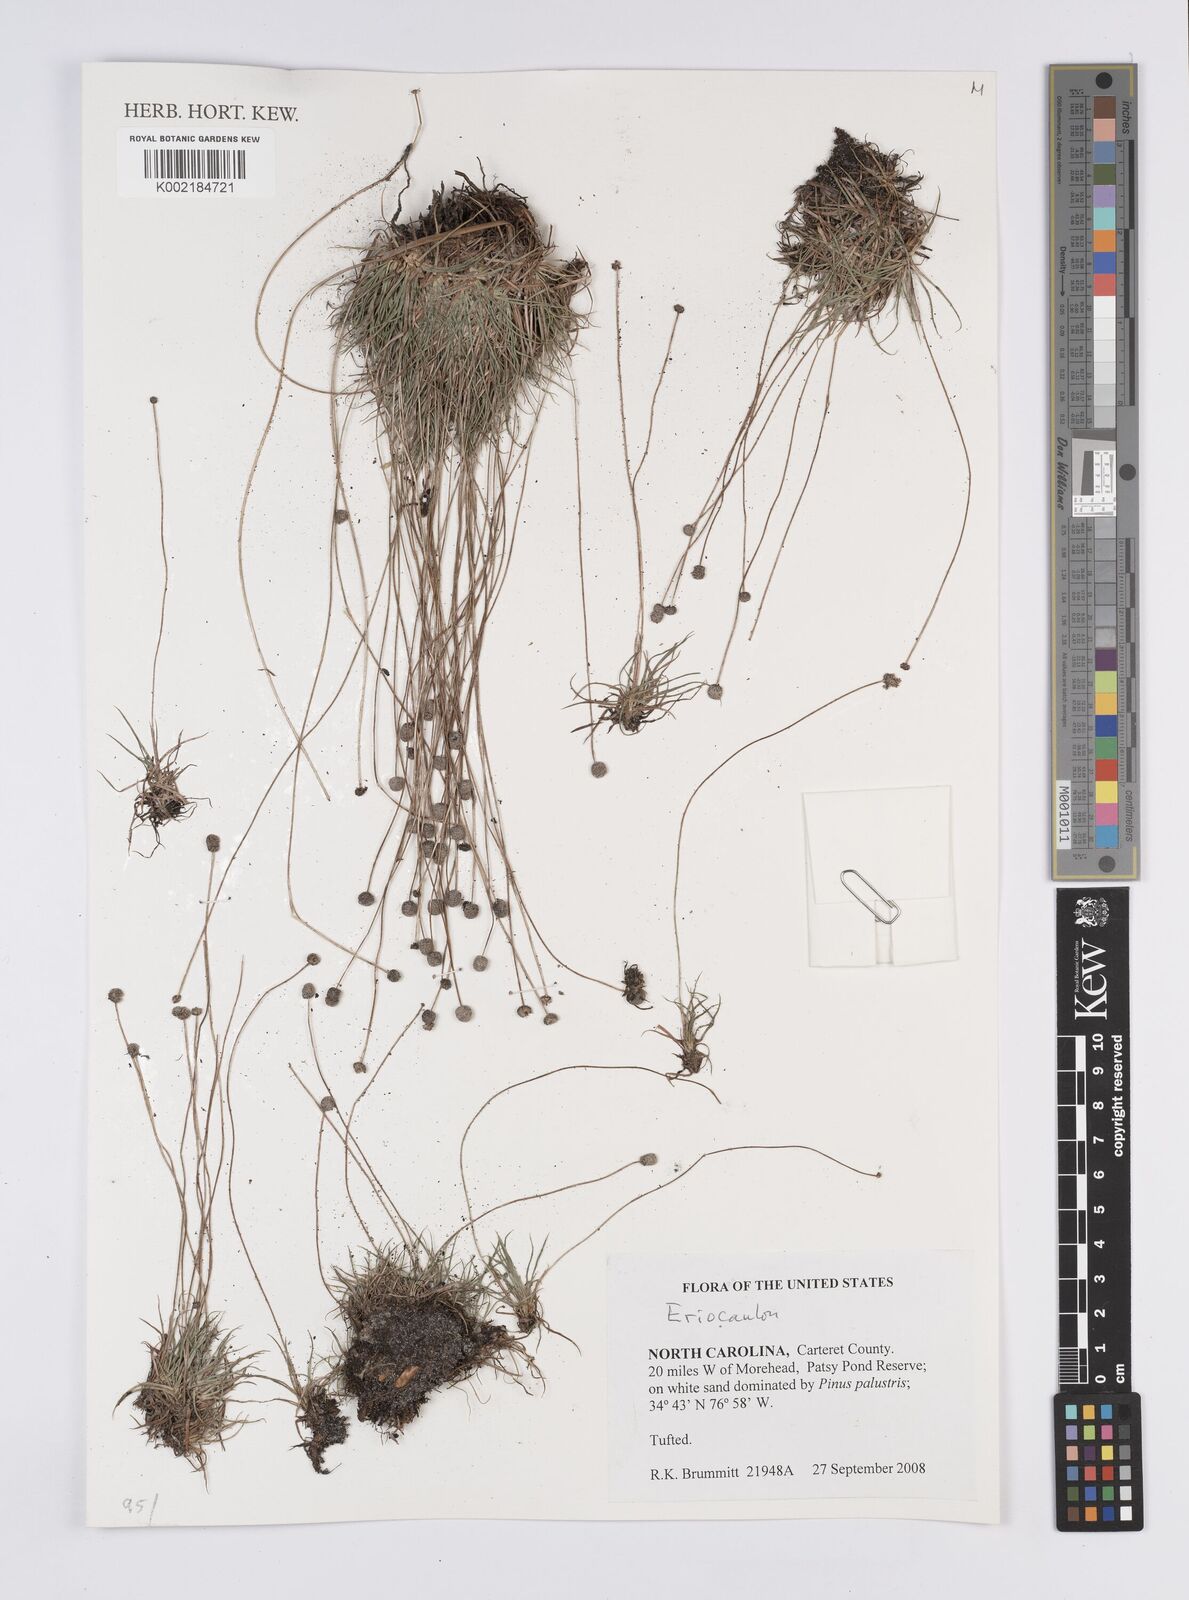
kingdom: Plantae
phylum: Tracheophyta
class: Liliopsida
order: Poales
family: Eriocaulaceae
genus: Eriocaulon
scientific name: Eriocaulon
